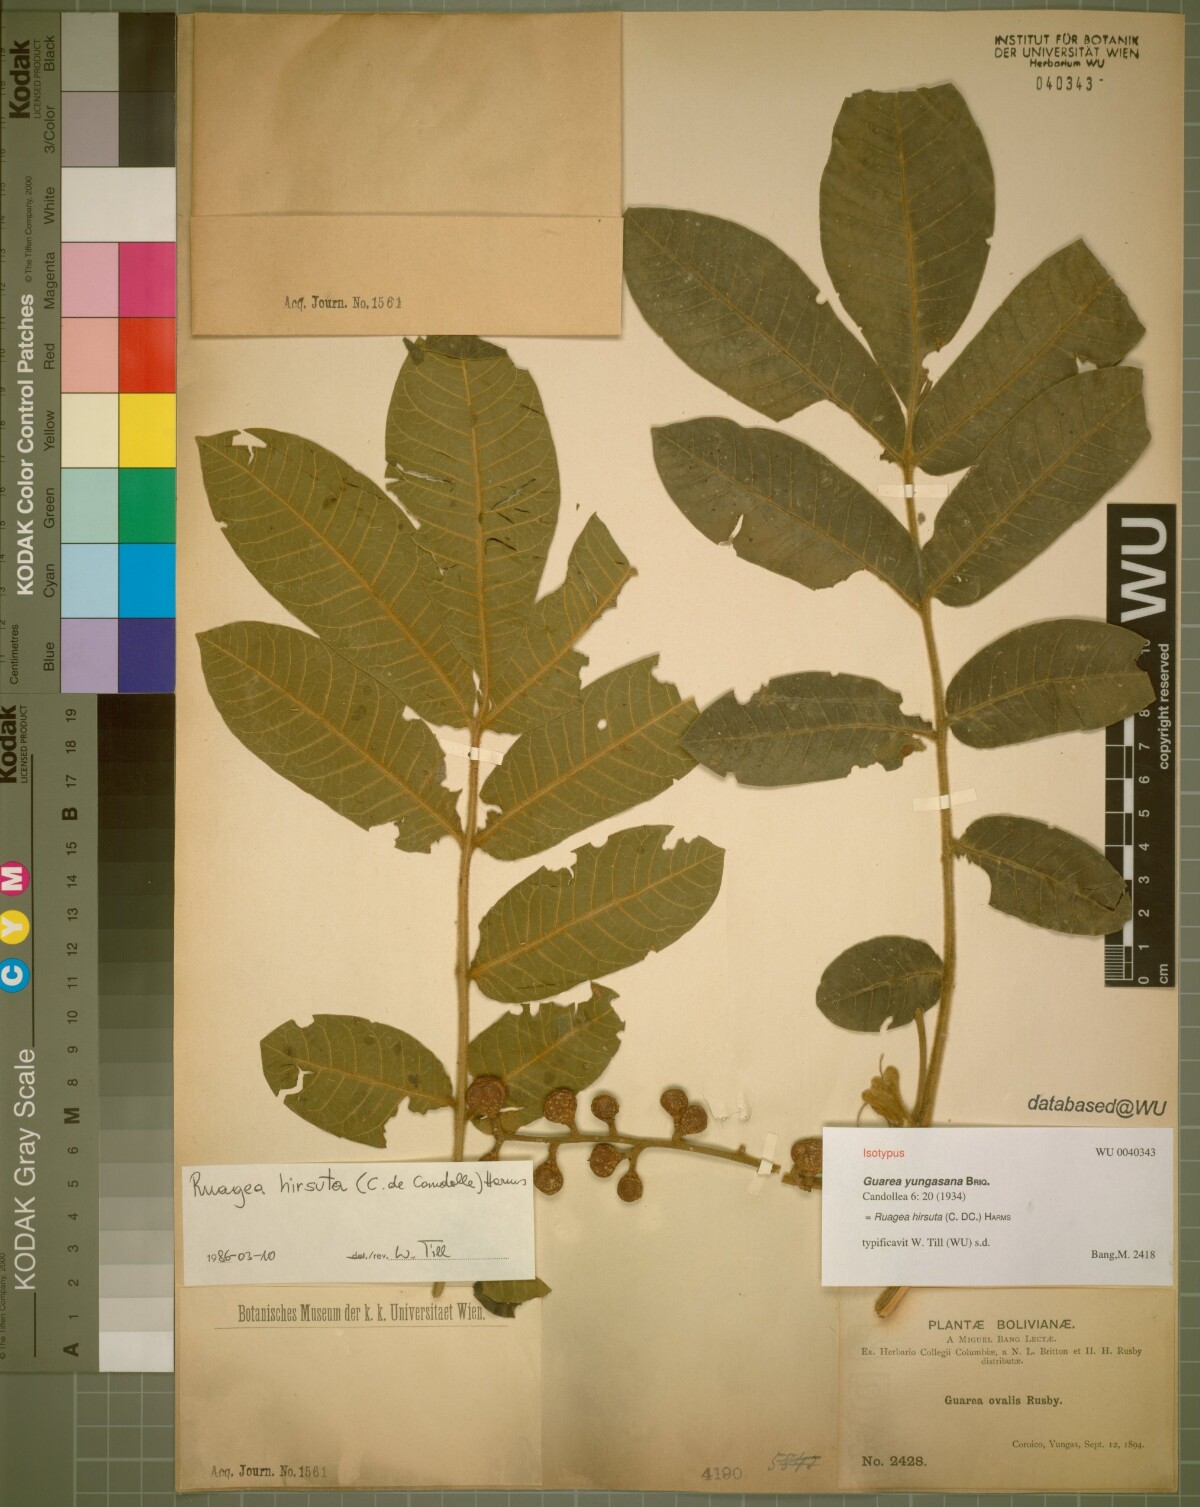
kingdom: Plantae
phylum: Tracheophyta
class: Magnoliopsida
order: Sapindales
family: Meliaceae
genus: Ruagea
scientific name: Ruagea hirsuta
